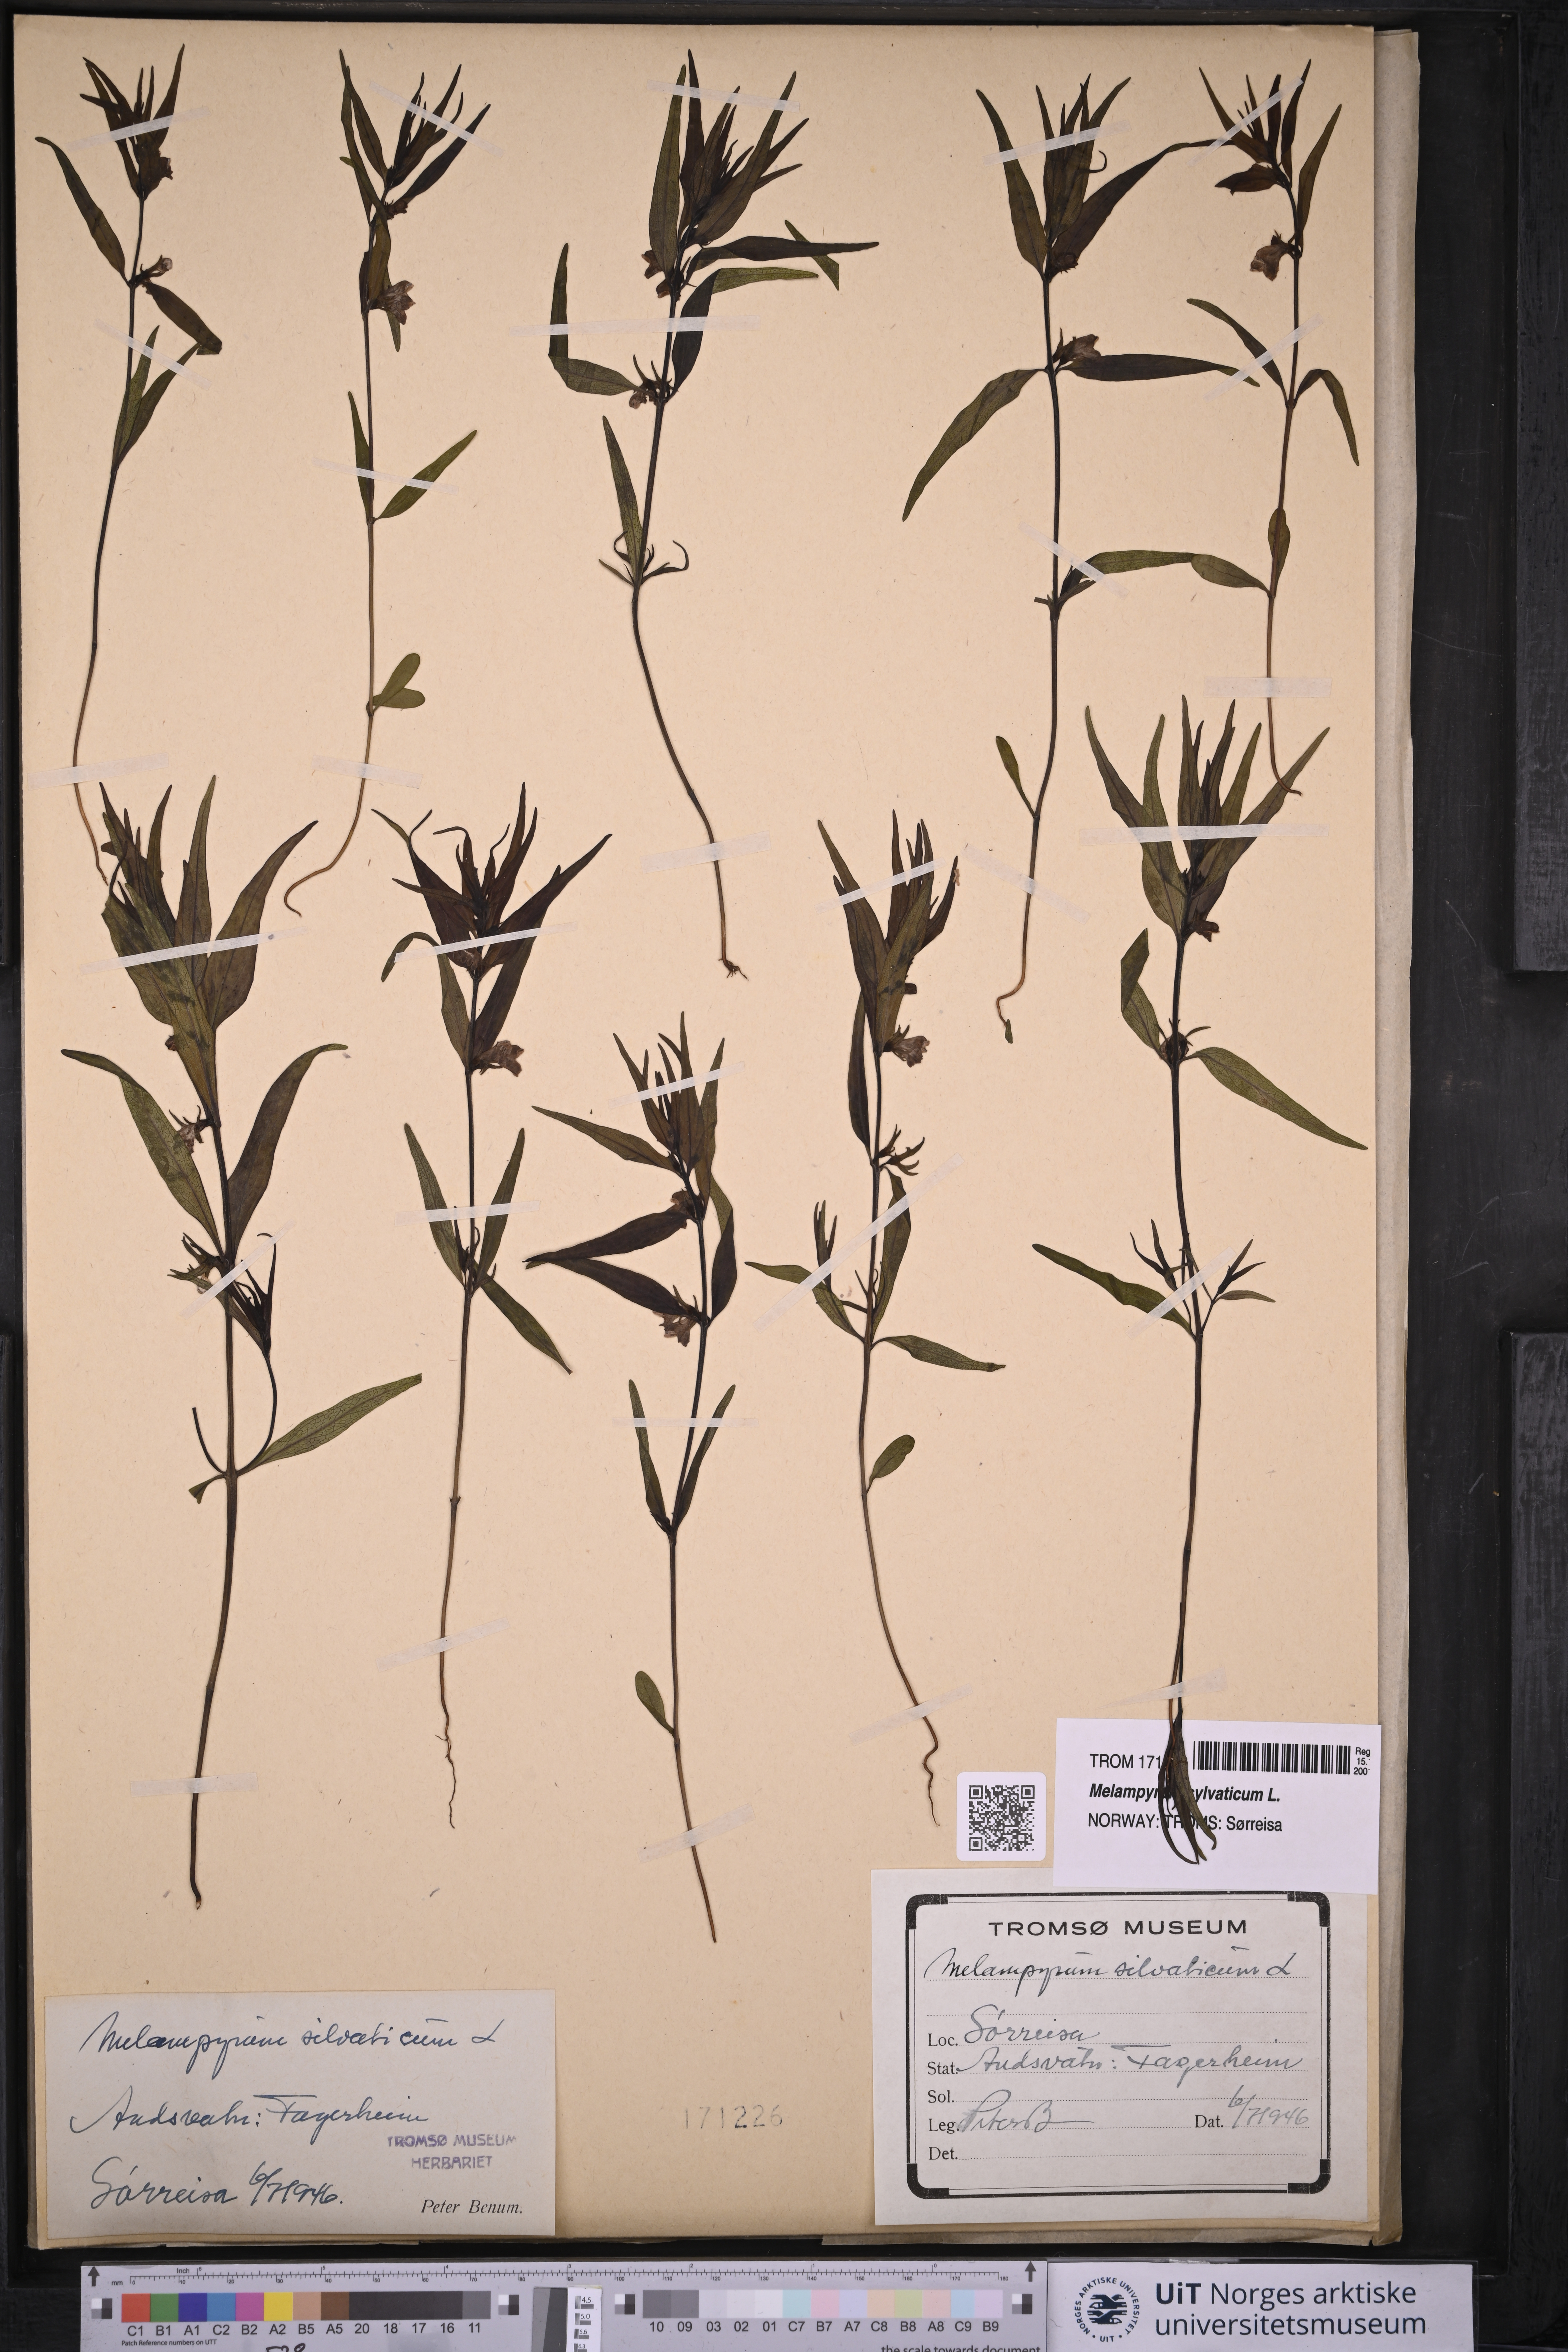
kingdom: Plantae
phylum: Tracheophyta
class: Magnoliopsida
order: Lamiales
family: Orobanchaceae
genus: Melampyrum
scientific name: Melampyrum sylvaticum
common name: Small cow-wheat
